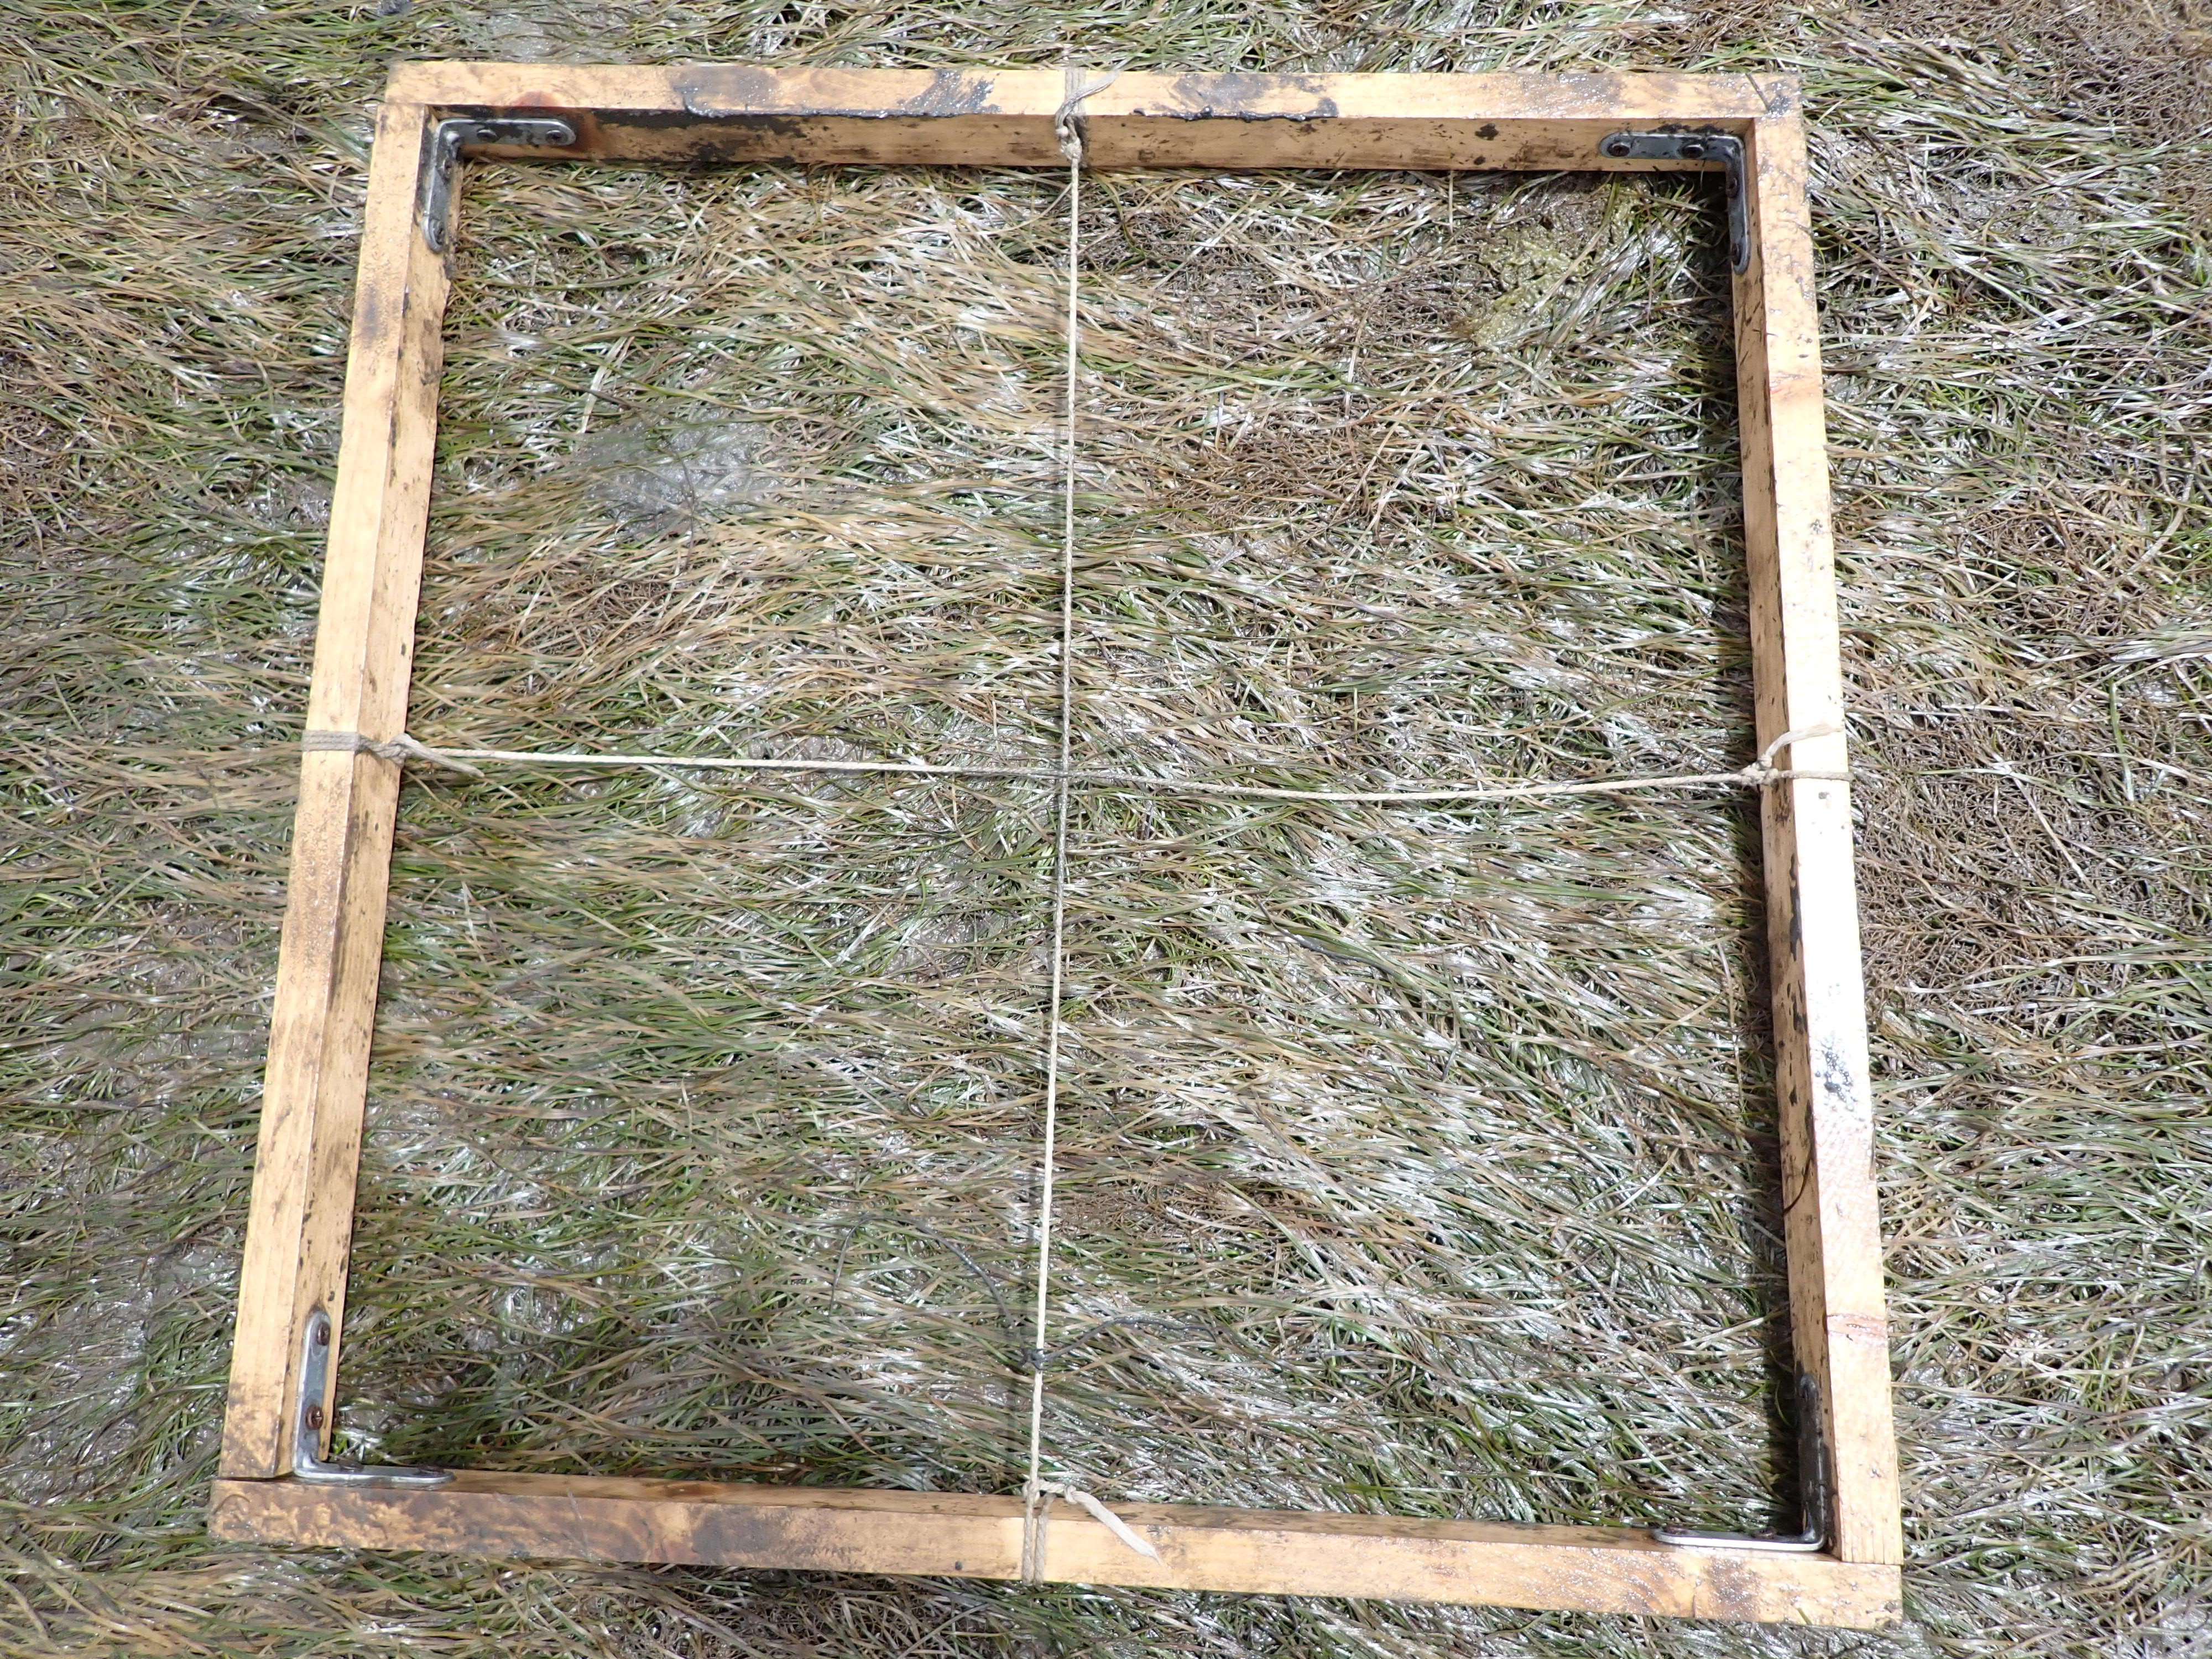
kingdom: Plantae
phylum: Tracheophyta
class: Liliopsida
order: Alismatales
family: Zosteraceae
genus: Zostera
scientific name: Zostera noltii
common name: Dwarf eelgrass
